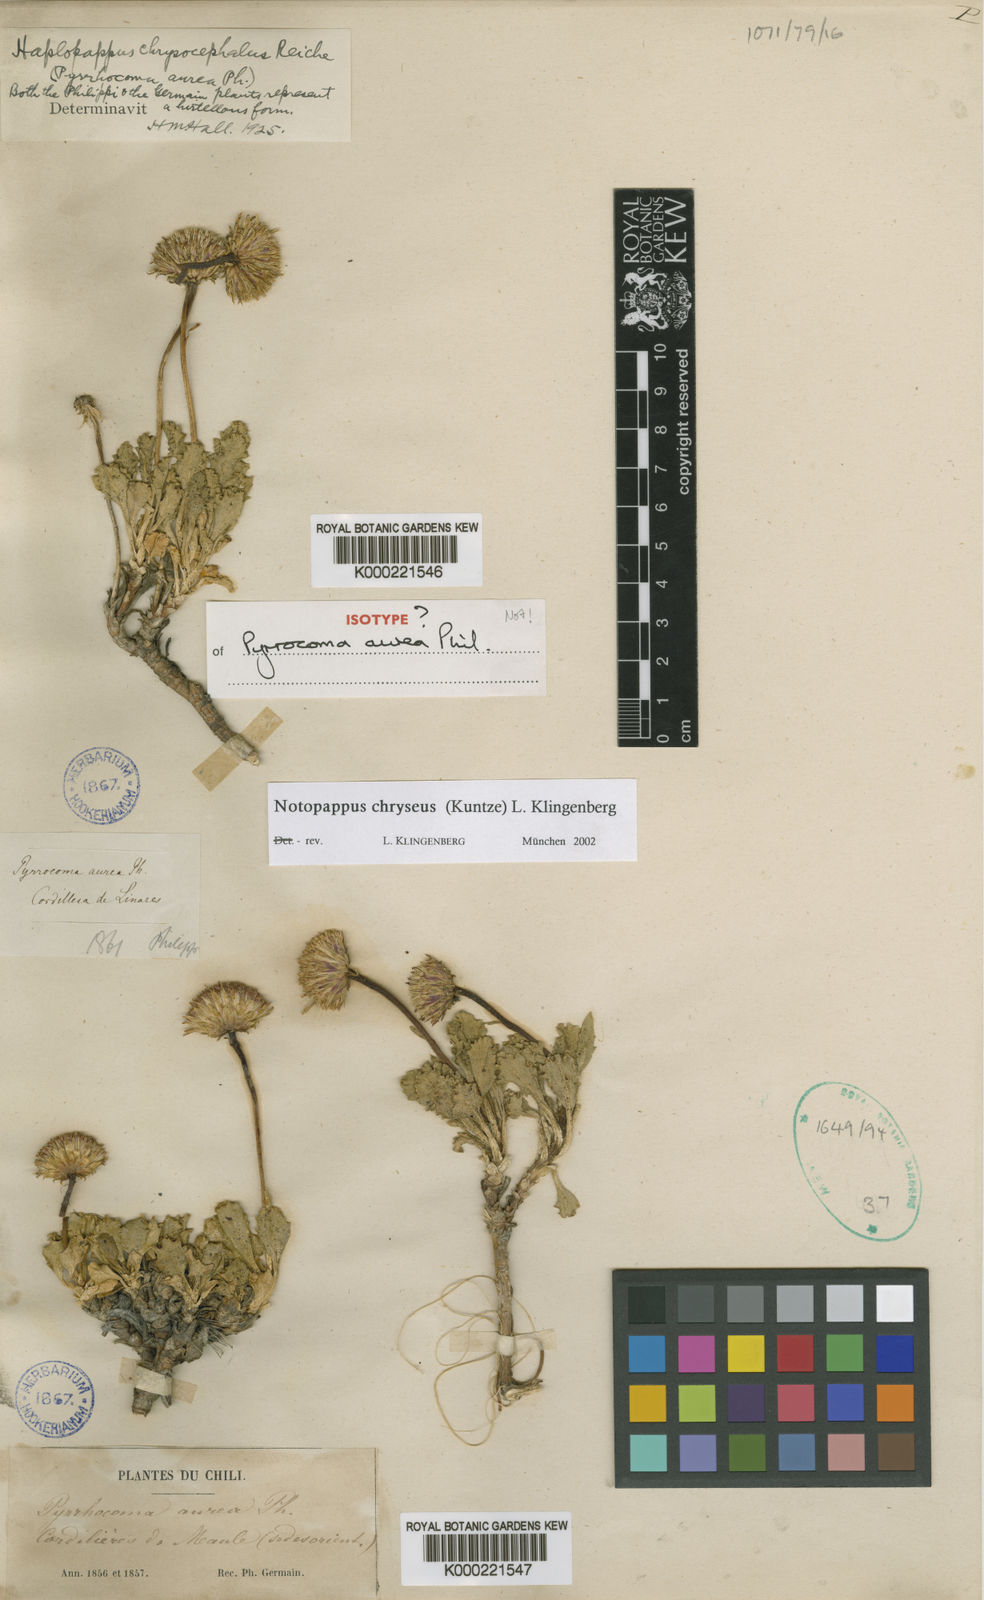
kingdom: Plantae
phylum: Tracheophyta
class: Magnoliopsida
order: Asterales
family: Asteraceae
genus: Notopappus
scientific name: Notopappus chryseus
